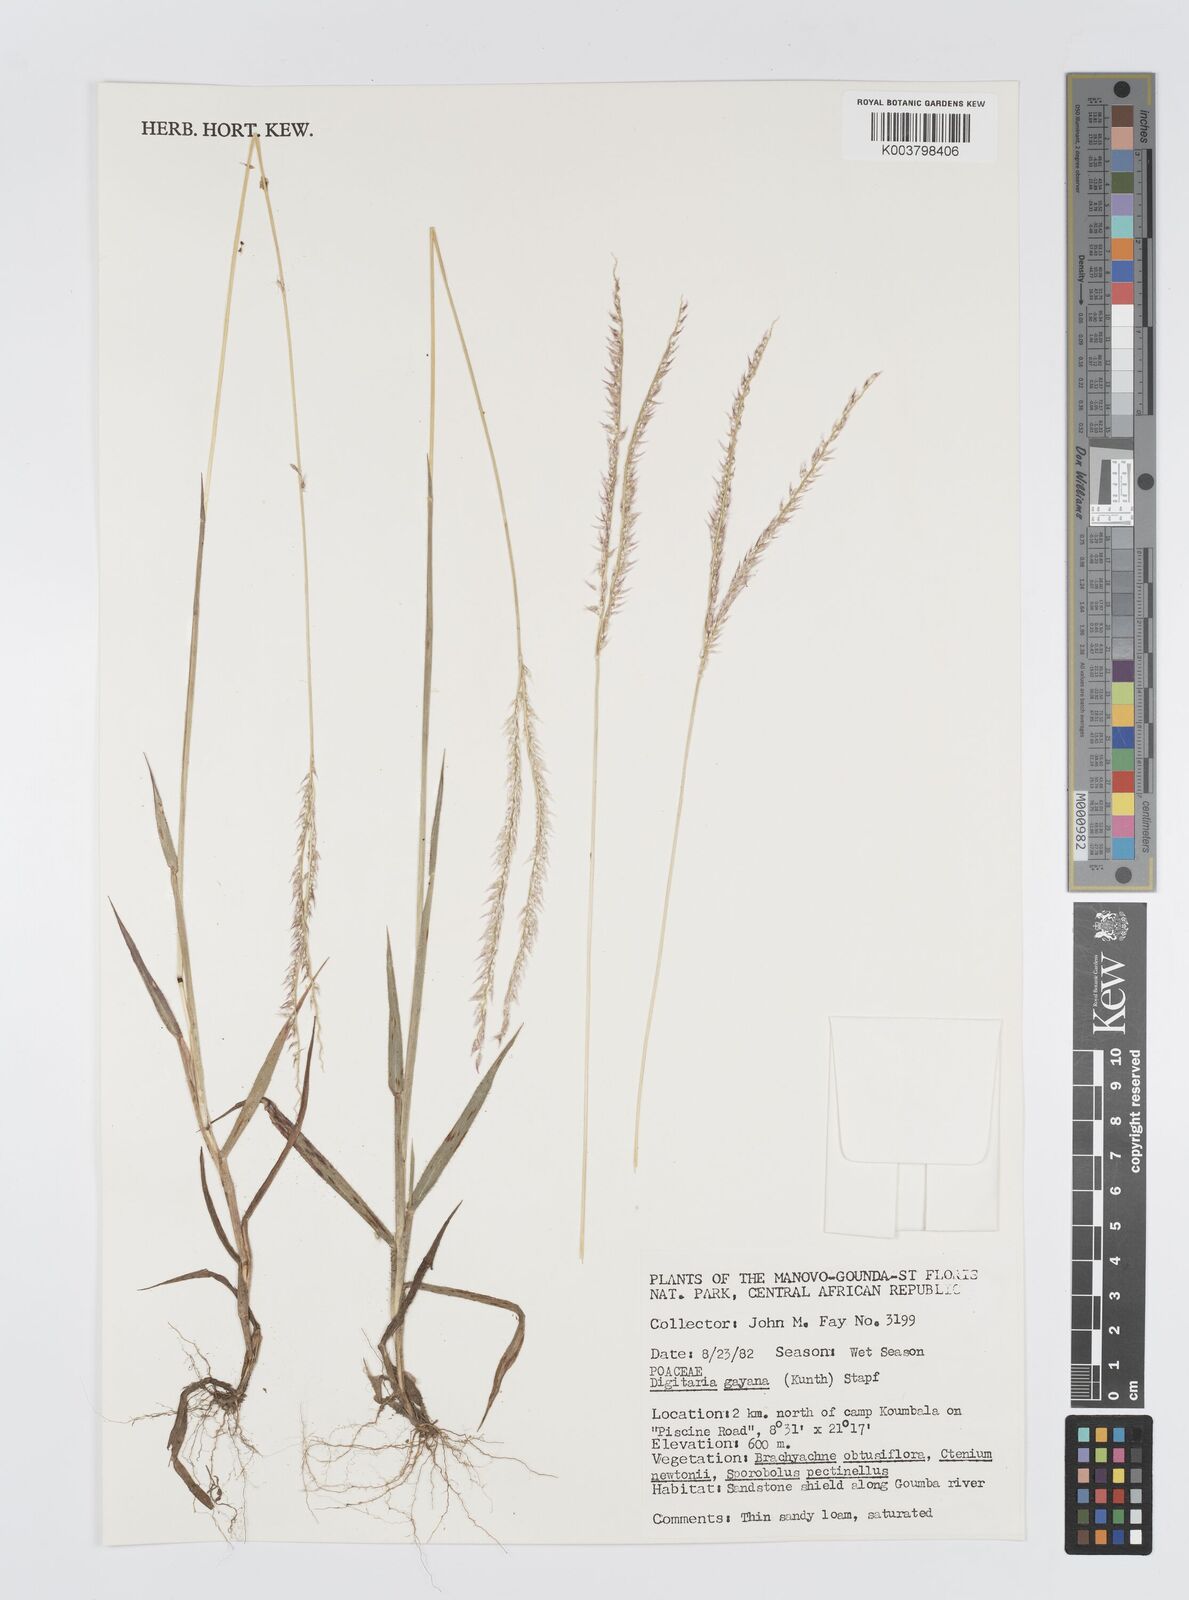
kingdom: Plantae
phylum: Tracheophyta
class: Liliopsida
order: Poales
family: Poaceae
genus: Digitaria
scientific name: Digitaria gayana
